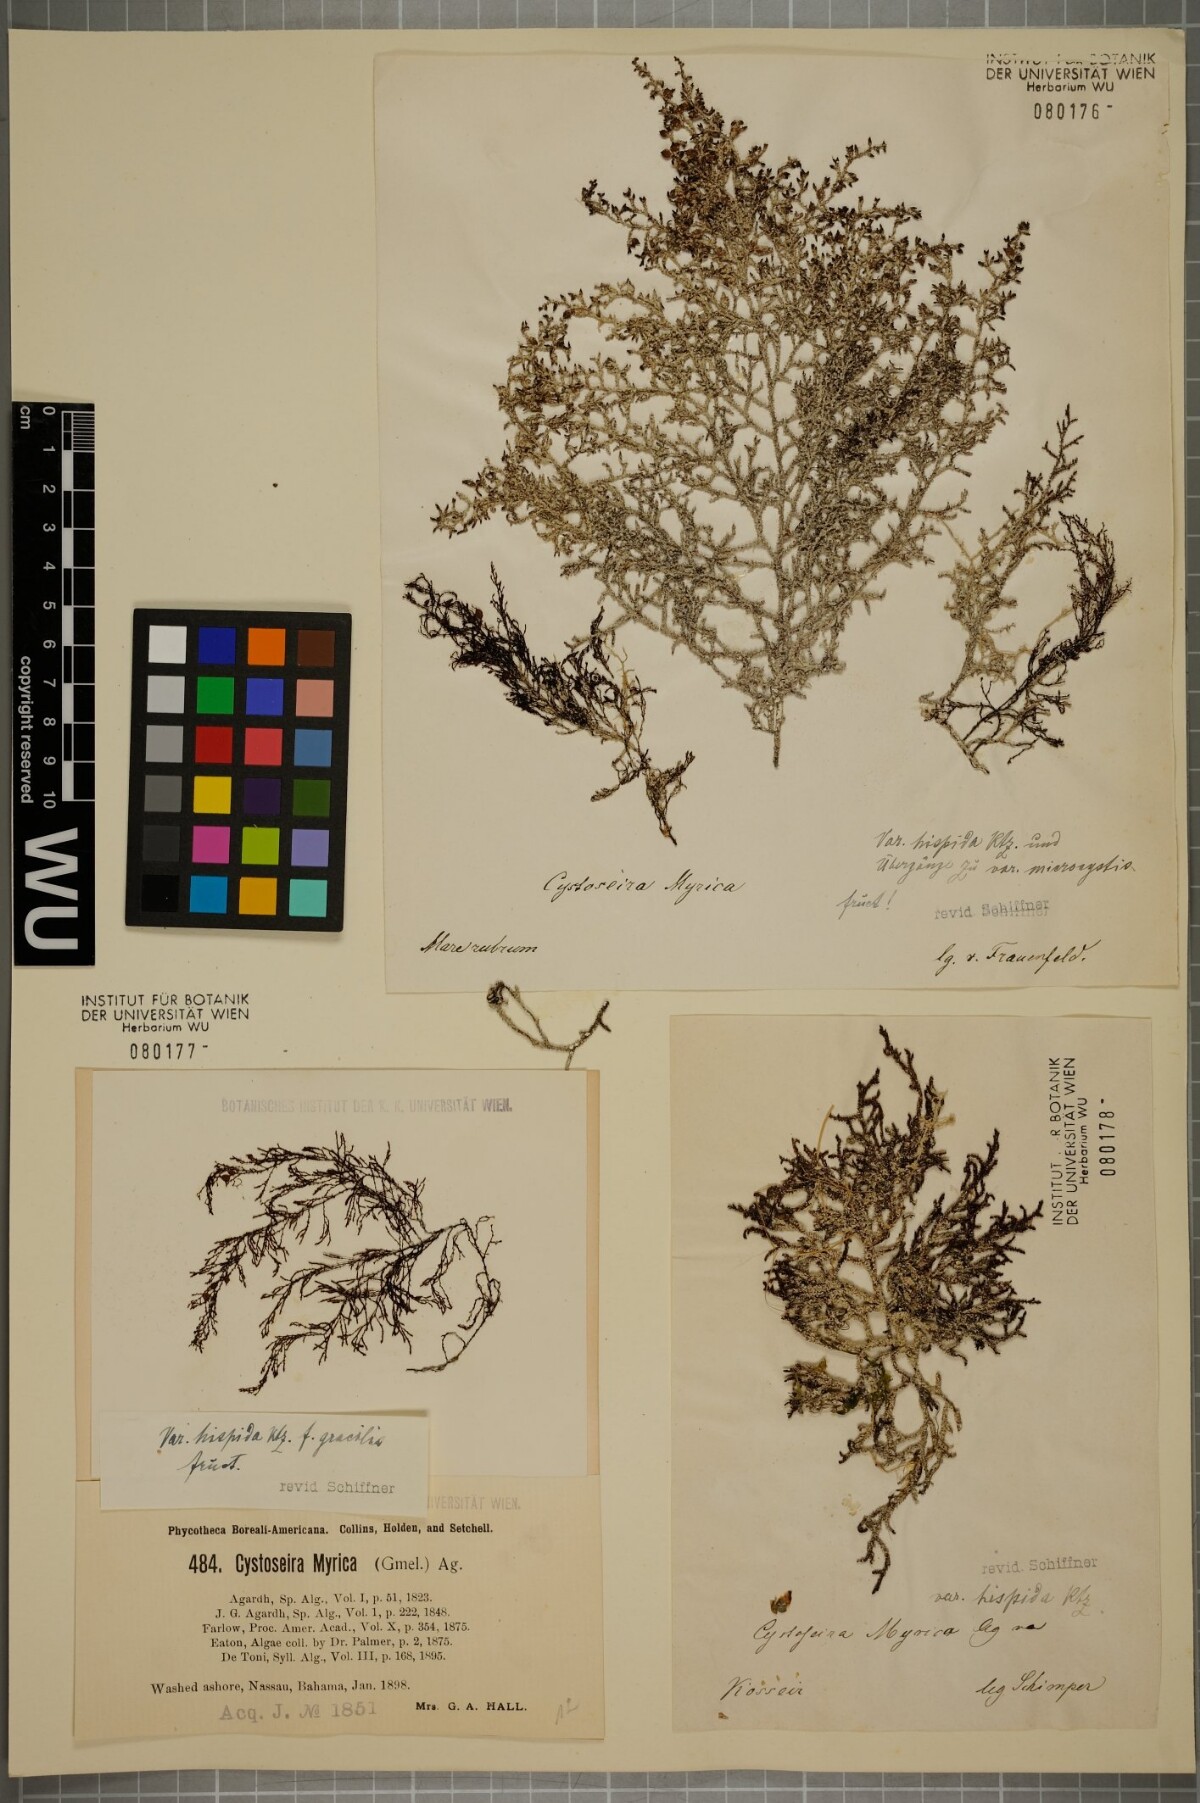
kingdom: Chromista
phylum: Ochrophyta
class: Phaeophyceae
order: Fucales
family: Sargassaceae
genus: Polycladia
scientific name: Polycladia myrica
